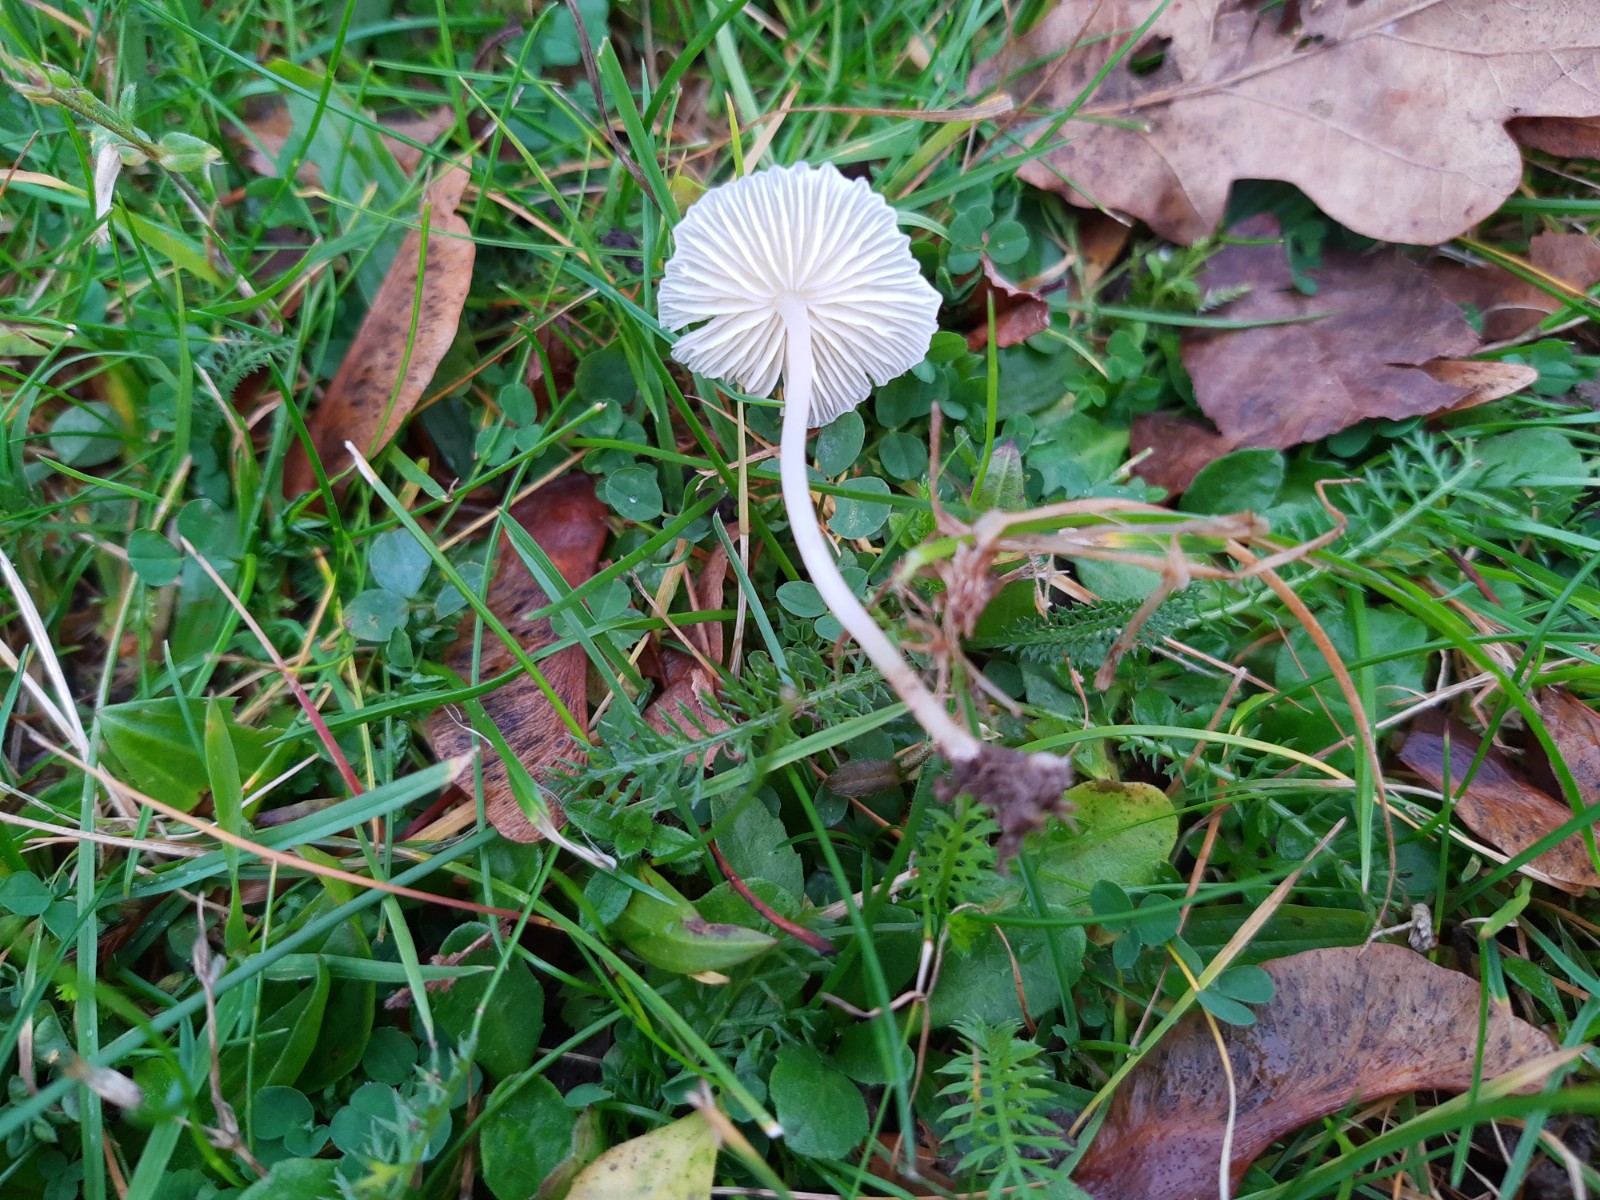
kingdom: Fungi
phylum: Basidiomycota
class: Agaricomycetes
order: Agaricales
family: Mycenaceae
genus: Atheniella
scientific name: Atheniella flavoalba
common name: gulhvid huesvamp
